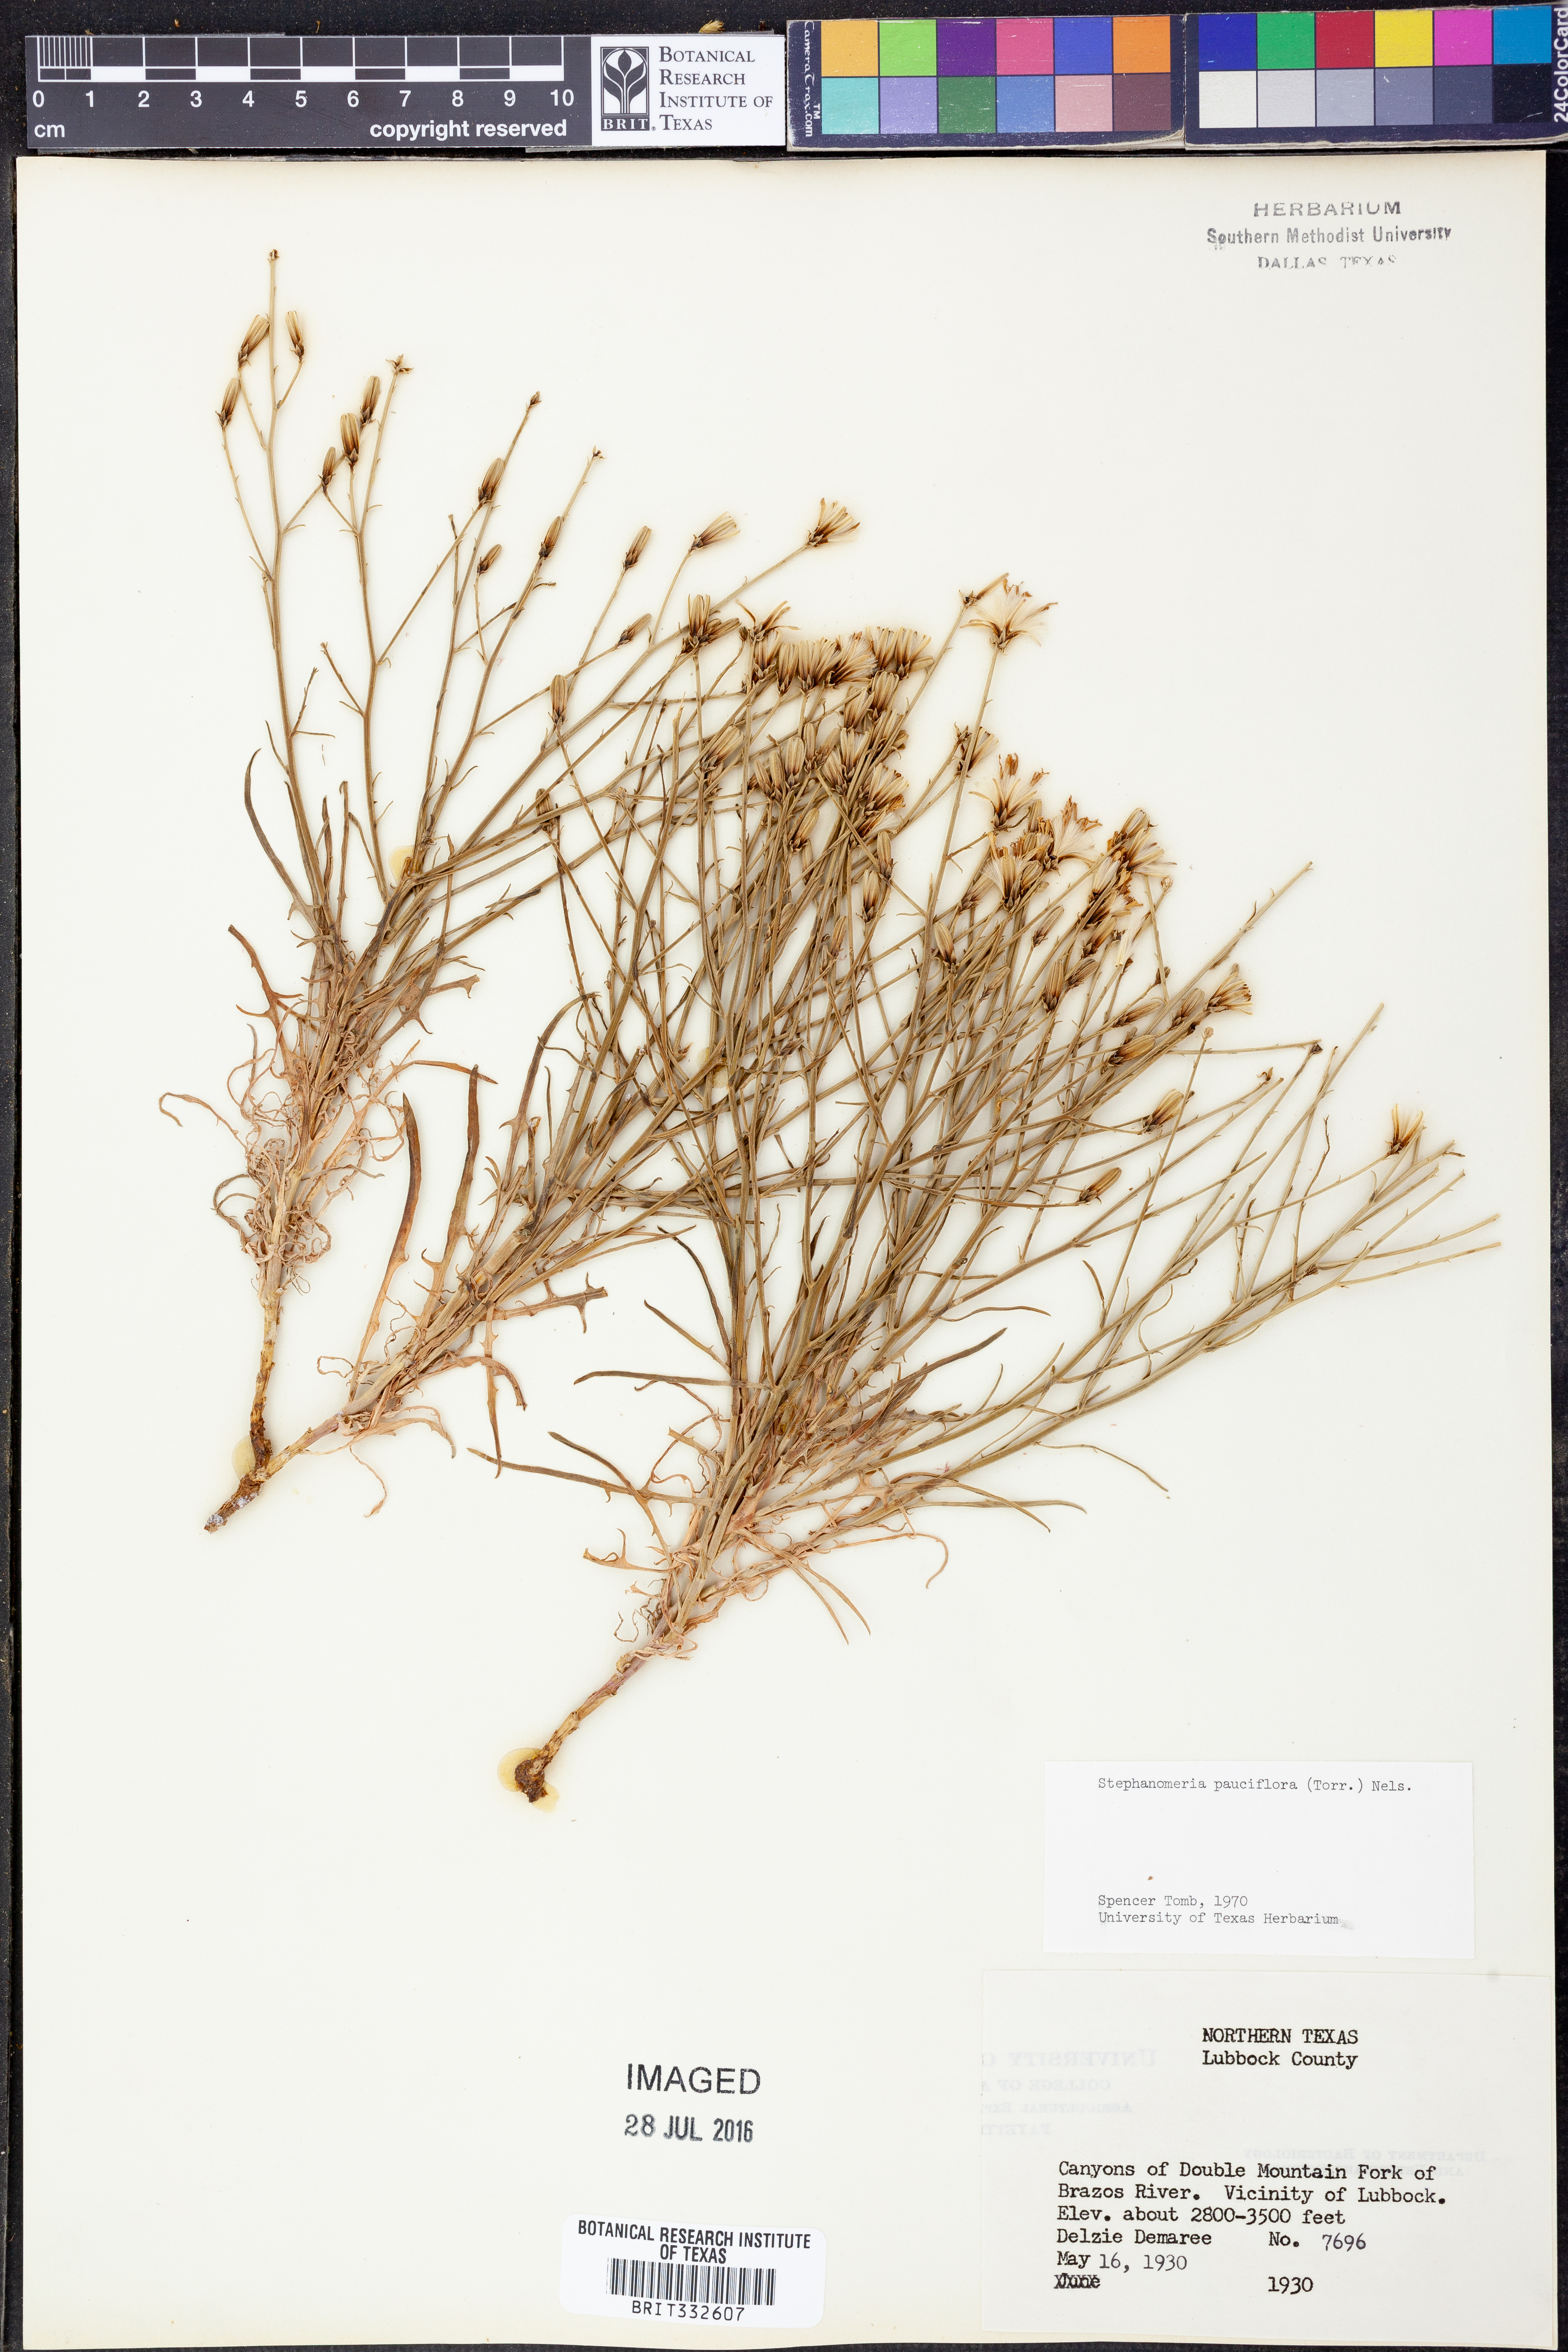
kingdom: Plantae
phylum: Tracheophyta
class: Magnoliopsida
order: Asterales
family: Asteraceae
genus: Stephanomeria
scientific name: Stephanomeria pauciflora
